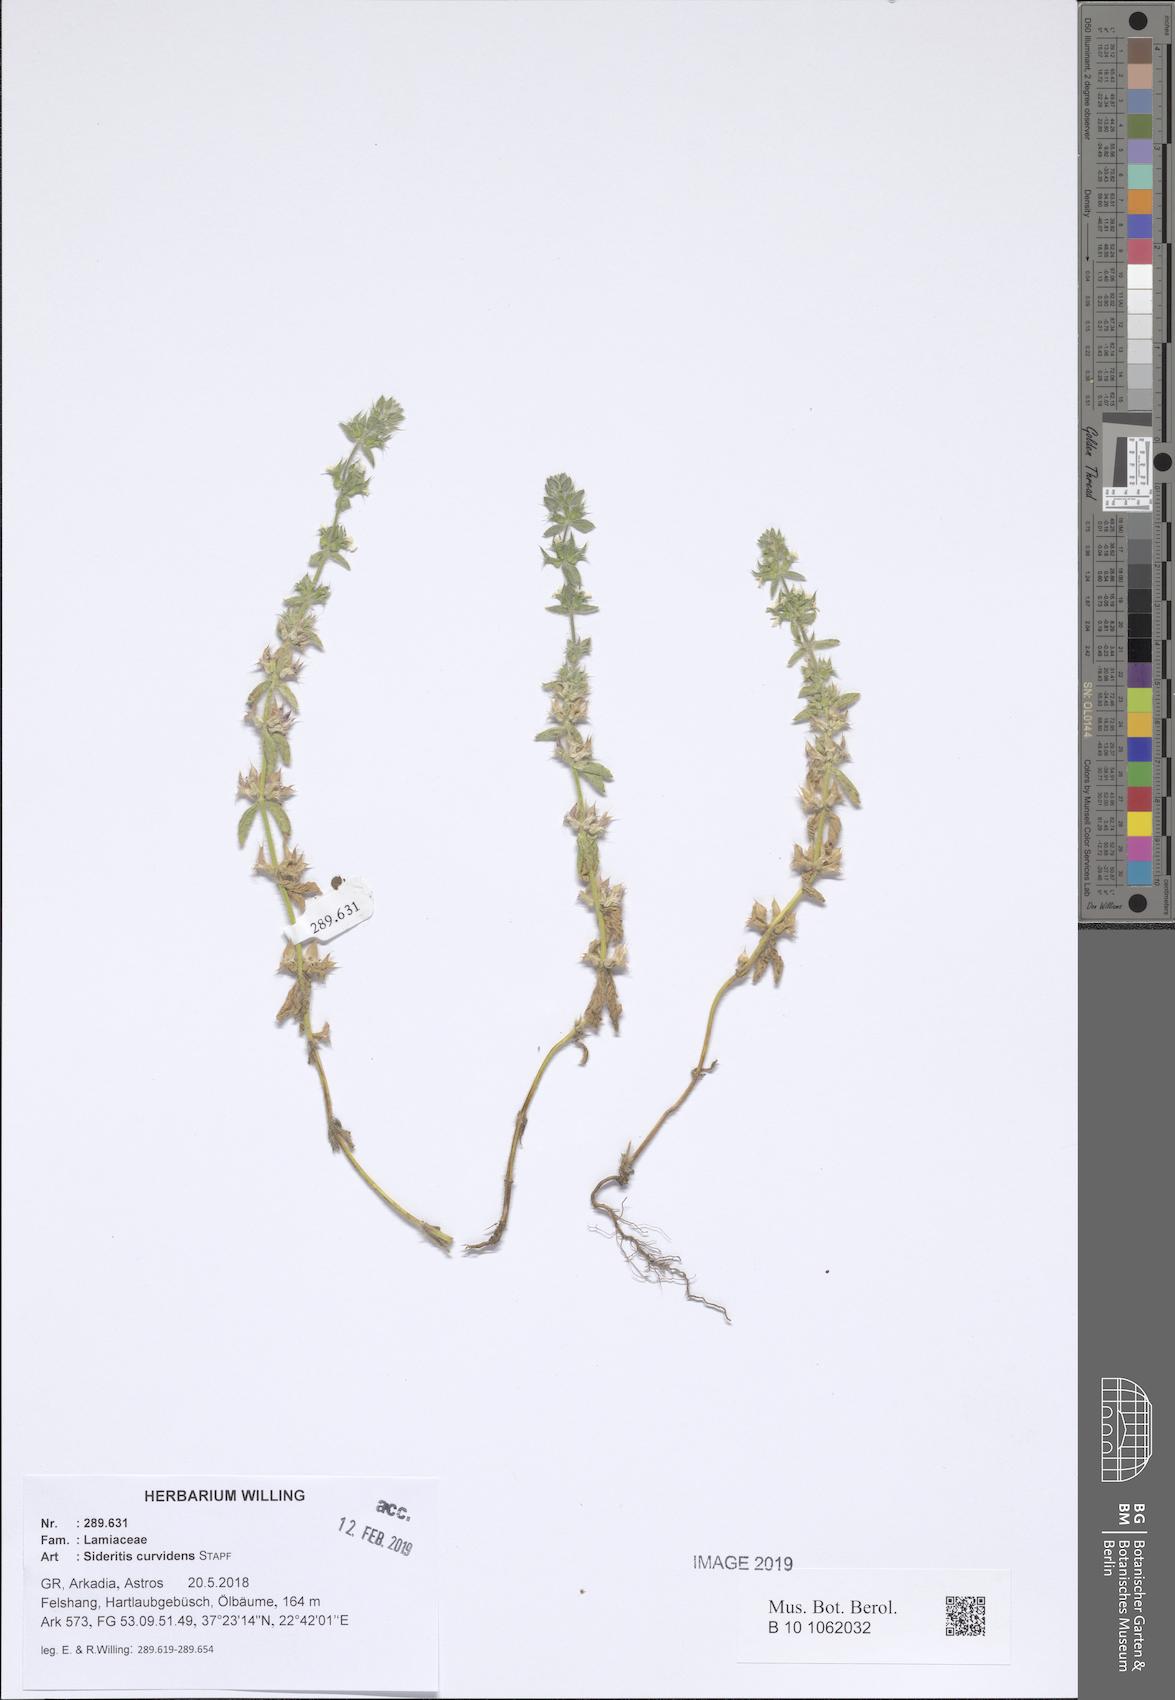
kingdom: Plantae
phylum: Tracheophyta
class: Magnoliopsida
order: Lamiales
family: Lamiaceae
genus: Sideritis
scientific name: Sideritis romana
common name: Simplebeak ironwort
